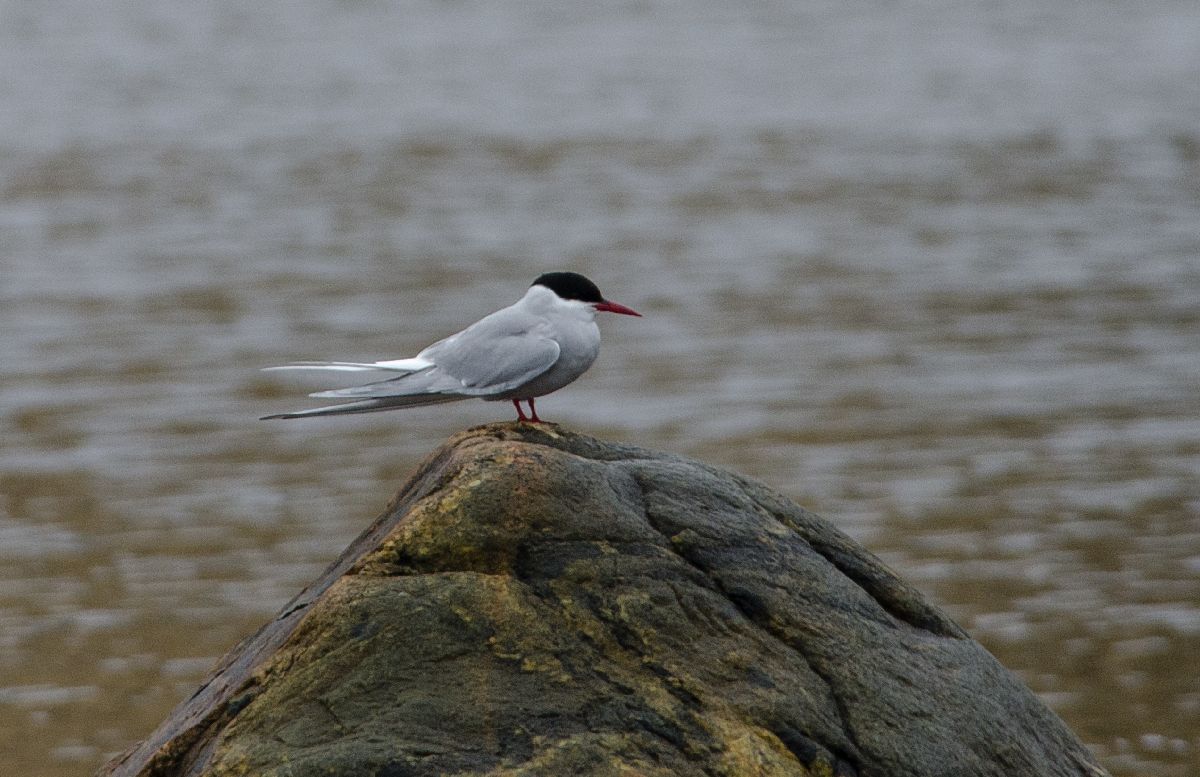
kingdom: Animalia
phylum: Chordata
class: Aves
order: Charadriiformes
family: Laridae
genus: Sterna
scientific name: Sterna paradisaea
